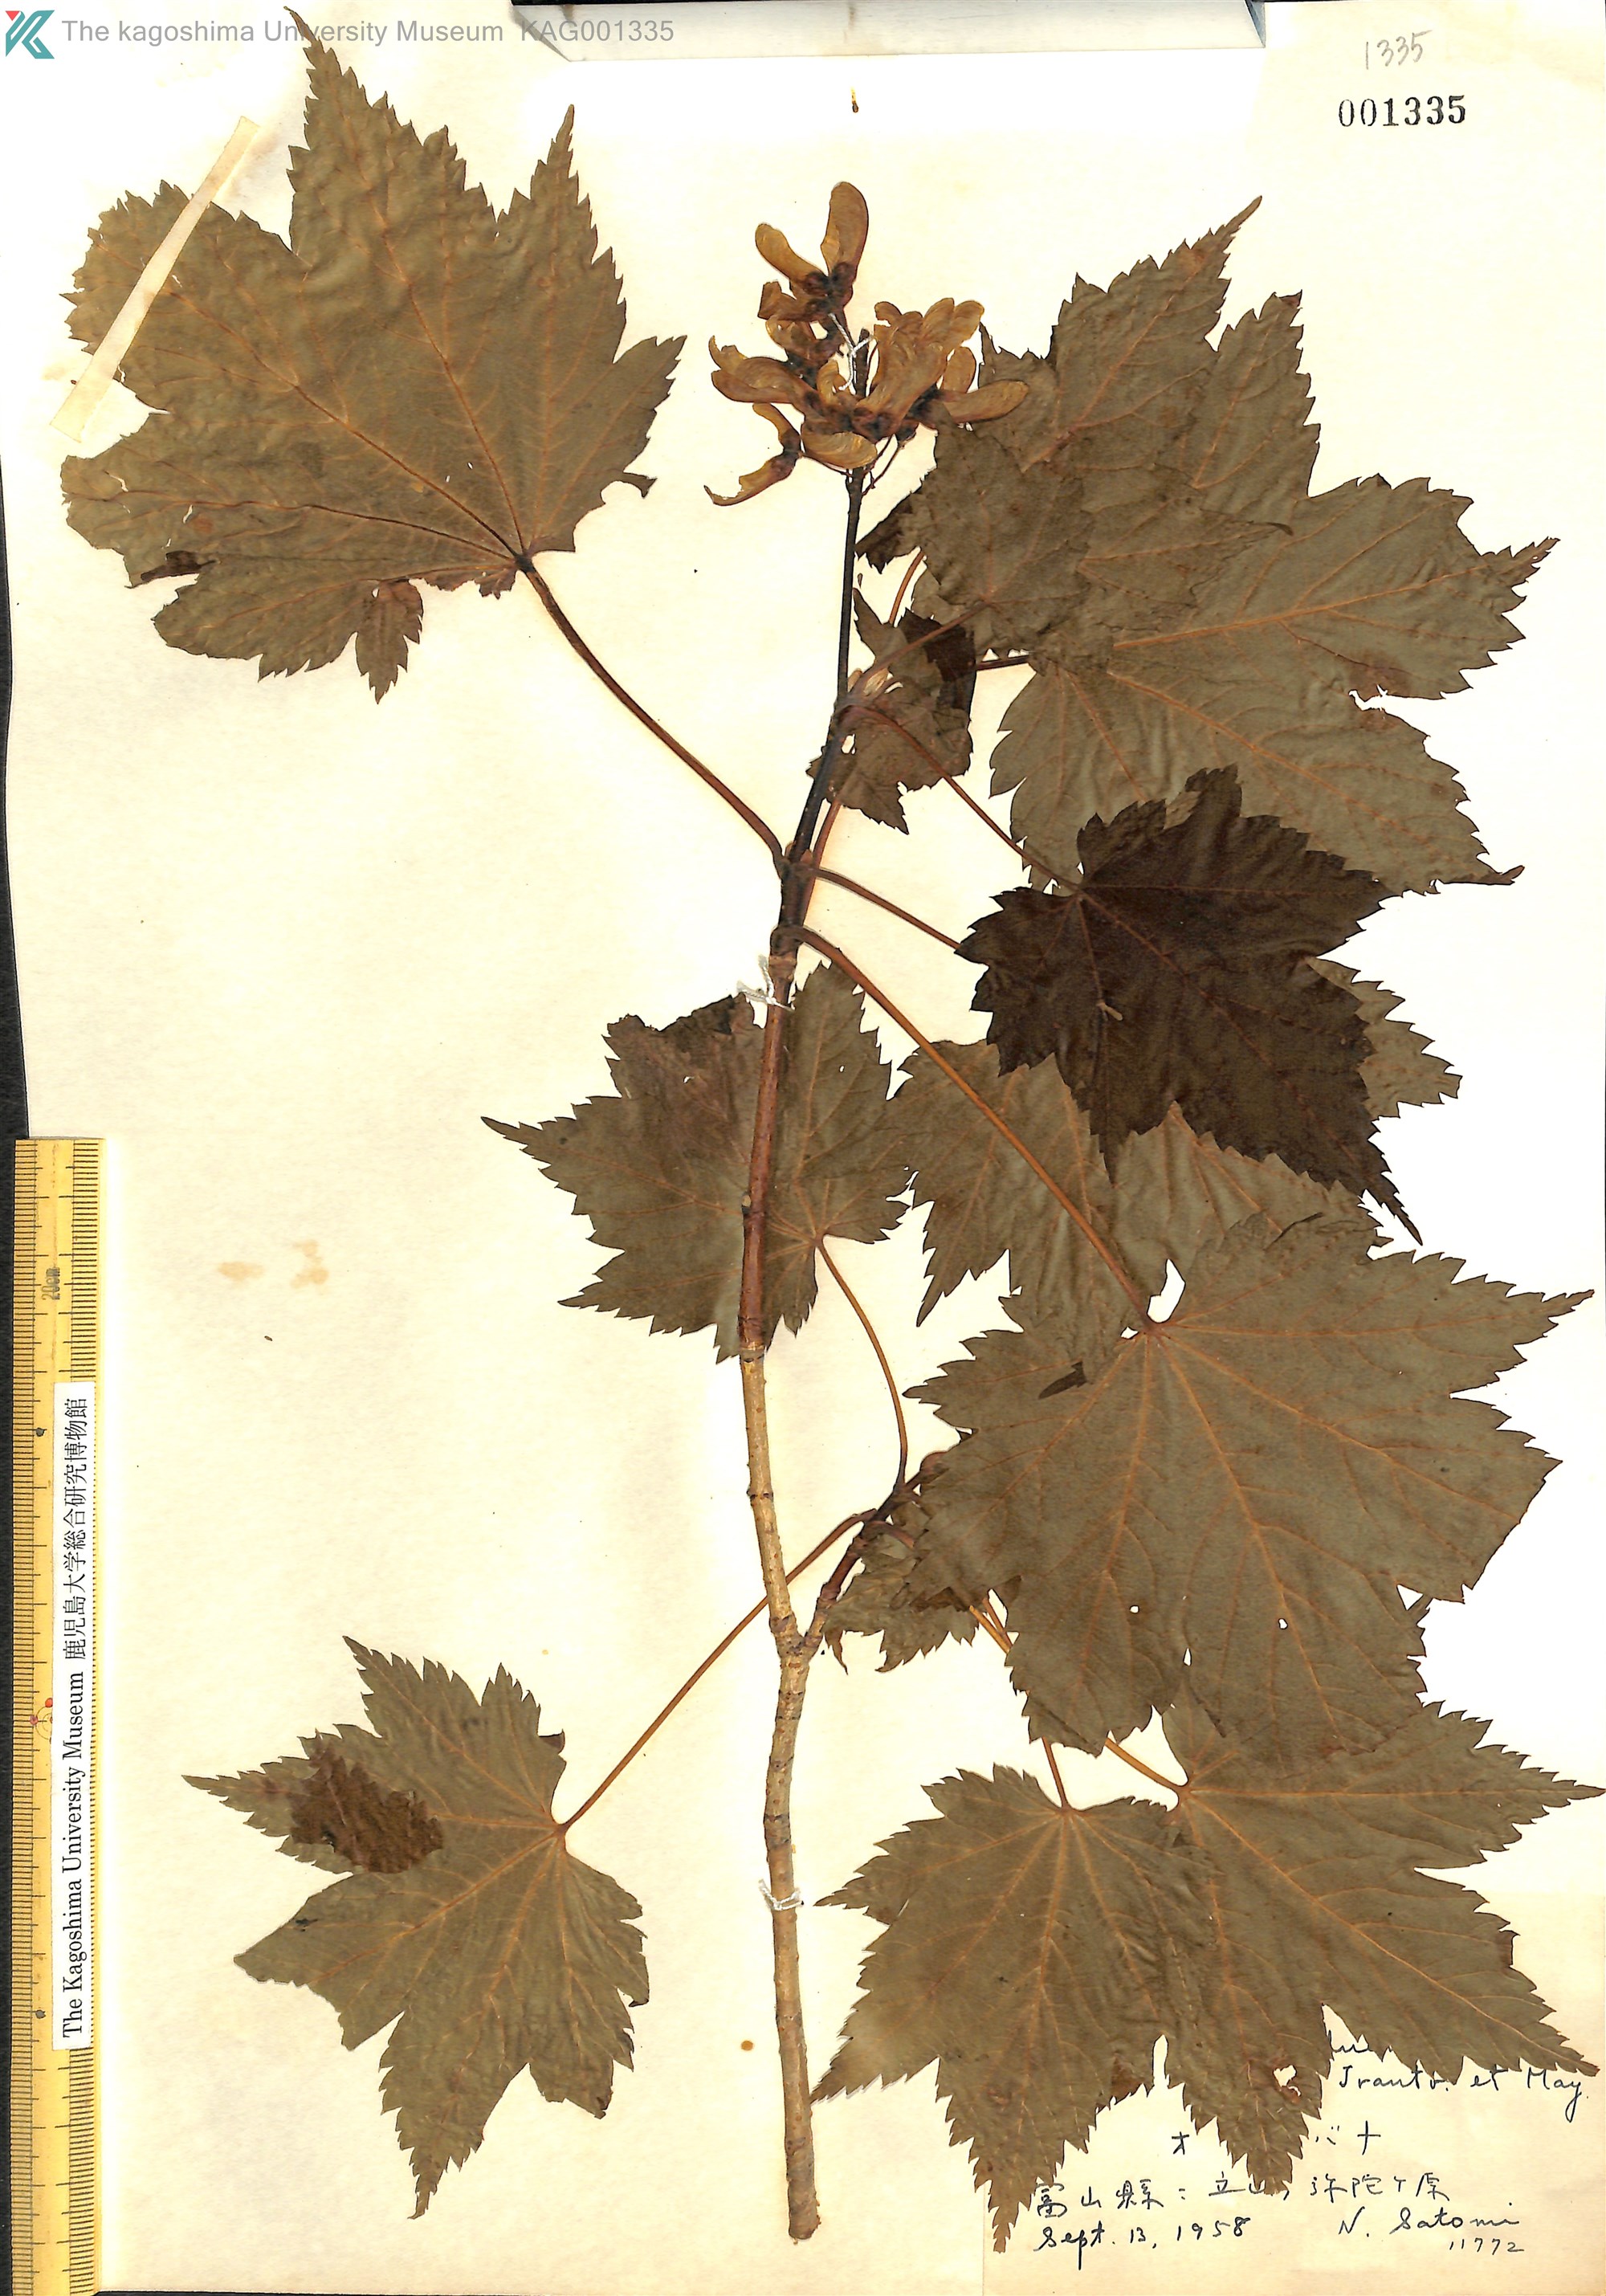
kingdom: Plantae
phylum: Tracheophyta
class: Magnoliopsida
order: Sapindales
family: Sapindaceae
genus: Acer
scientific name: Acer ukurunduense
